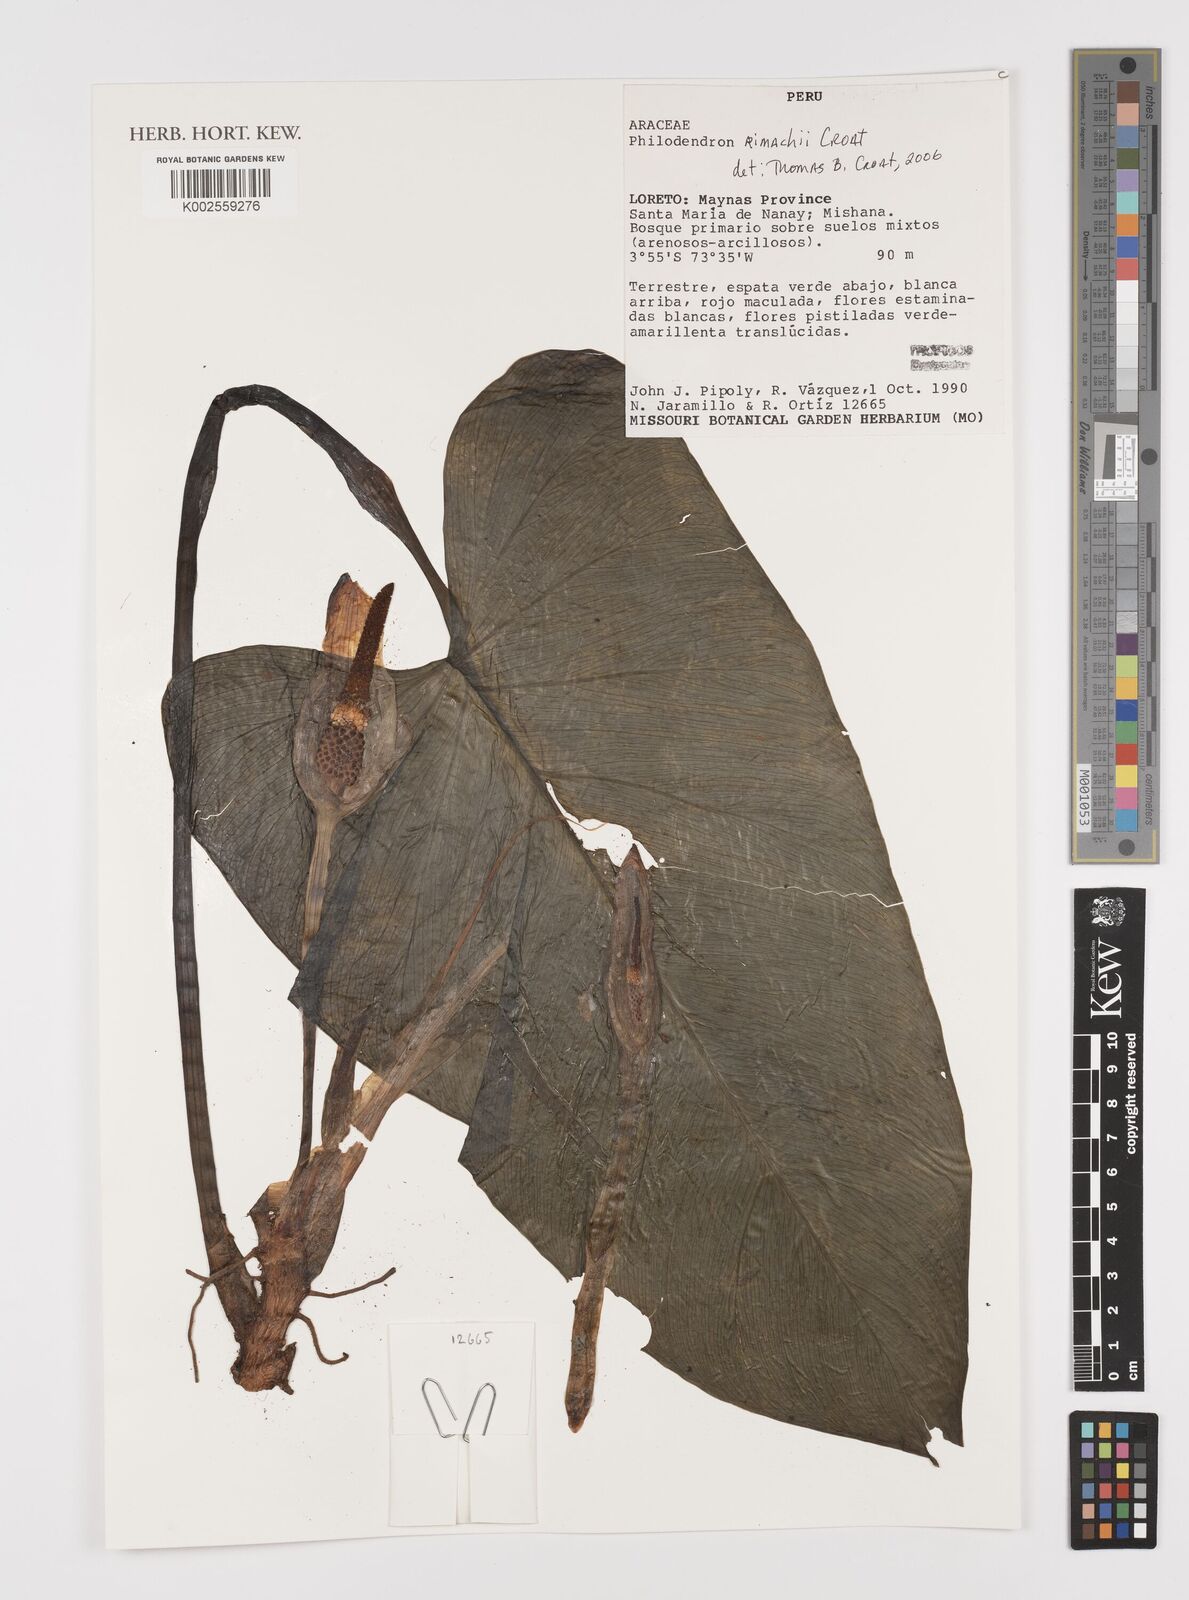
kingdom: Plantae
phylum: Tracheophyta
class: Liliopsida
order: Alismatales
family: Araceae
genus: Philodendron
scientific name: Philodendron rimachii
